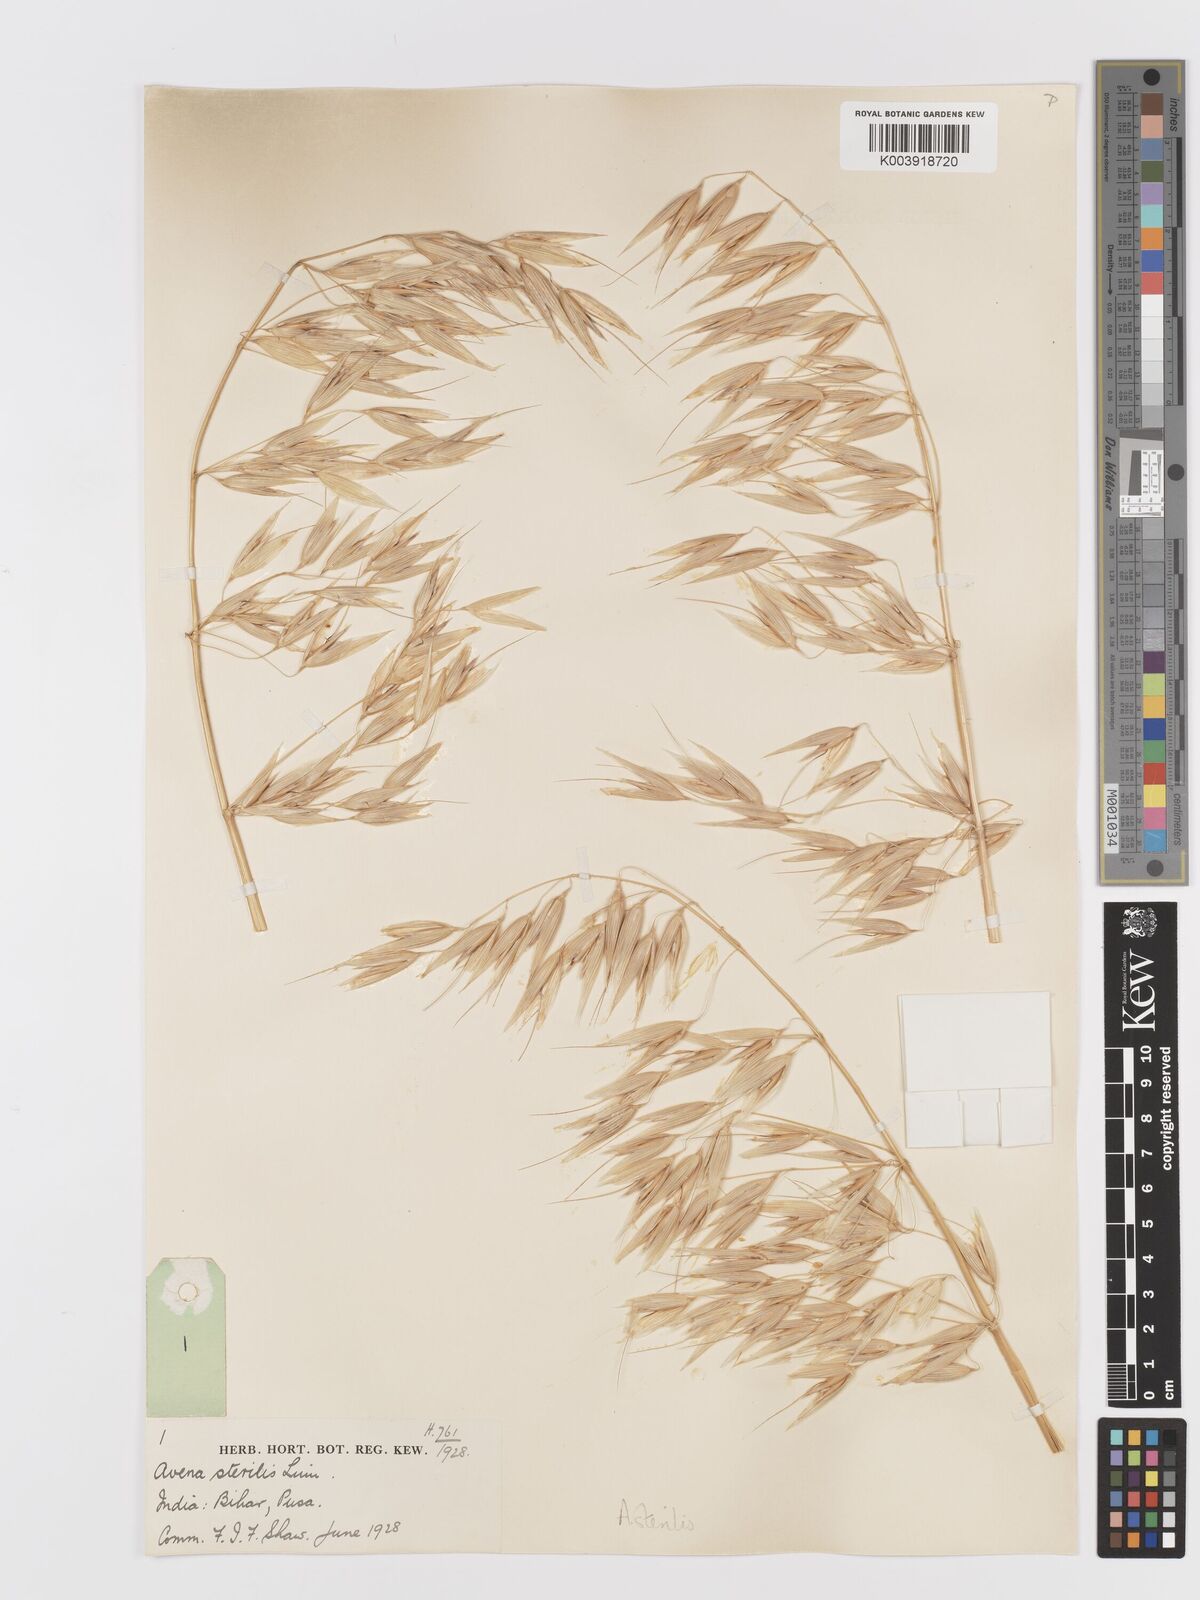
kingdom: Plantae
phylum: Tracheophyta
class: Liliopsida
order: Poales
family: Poaceae
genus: Avena
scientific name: Avena sterilis
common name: Animated oat
